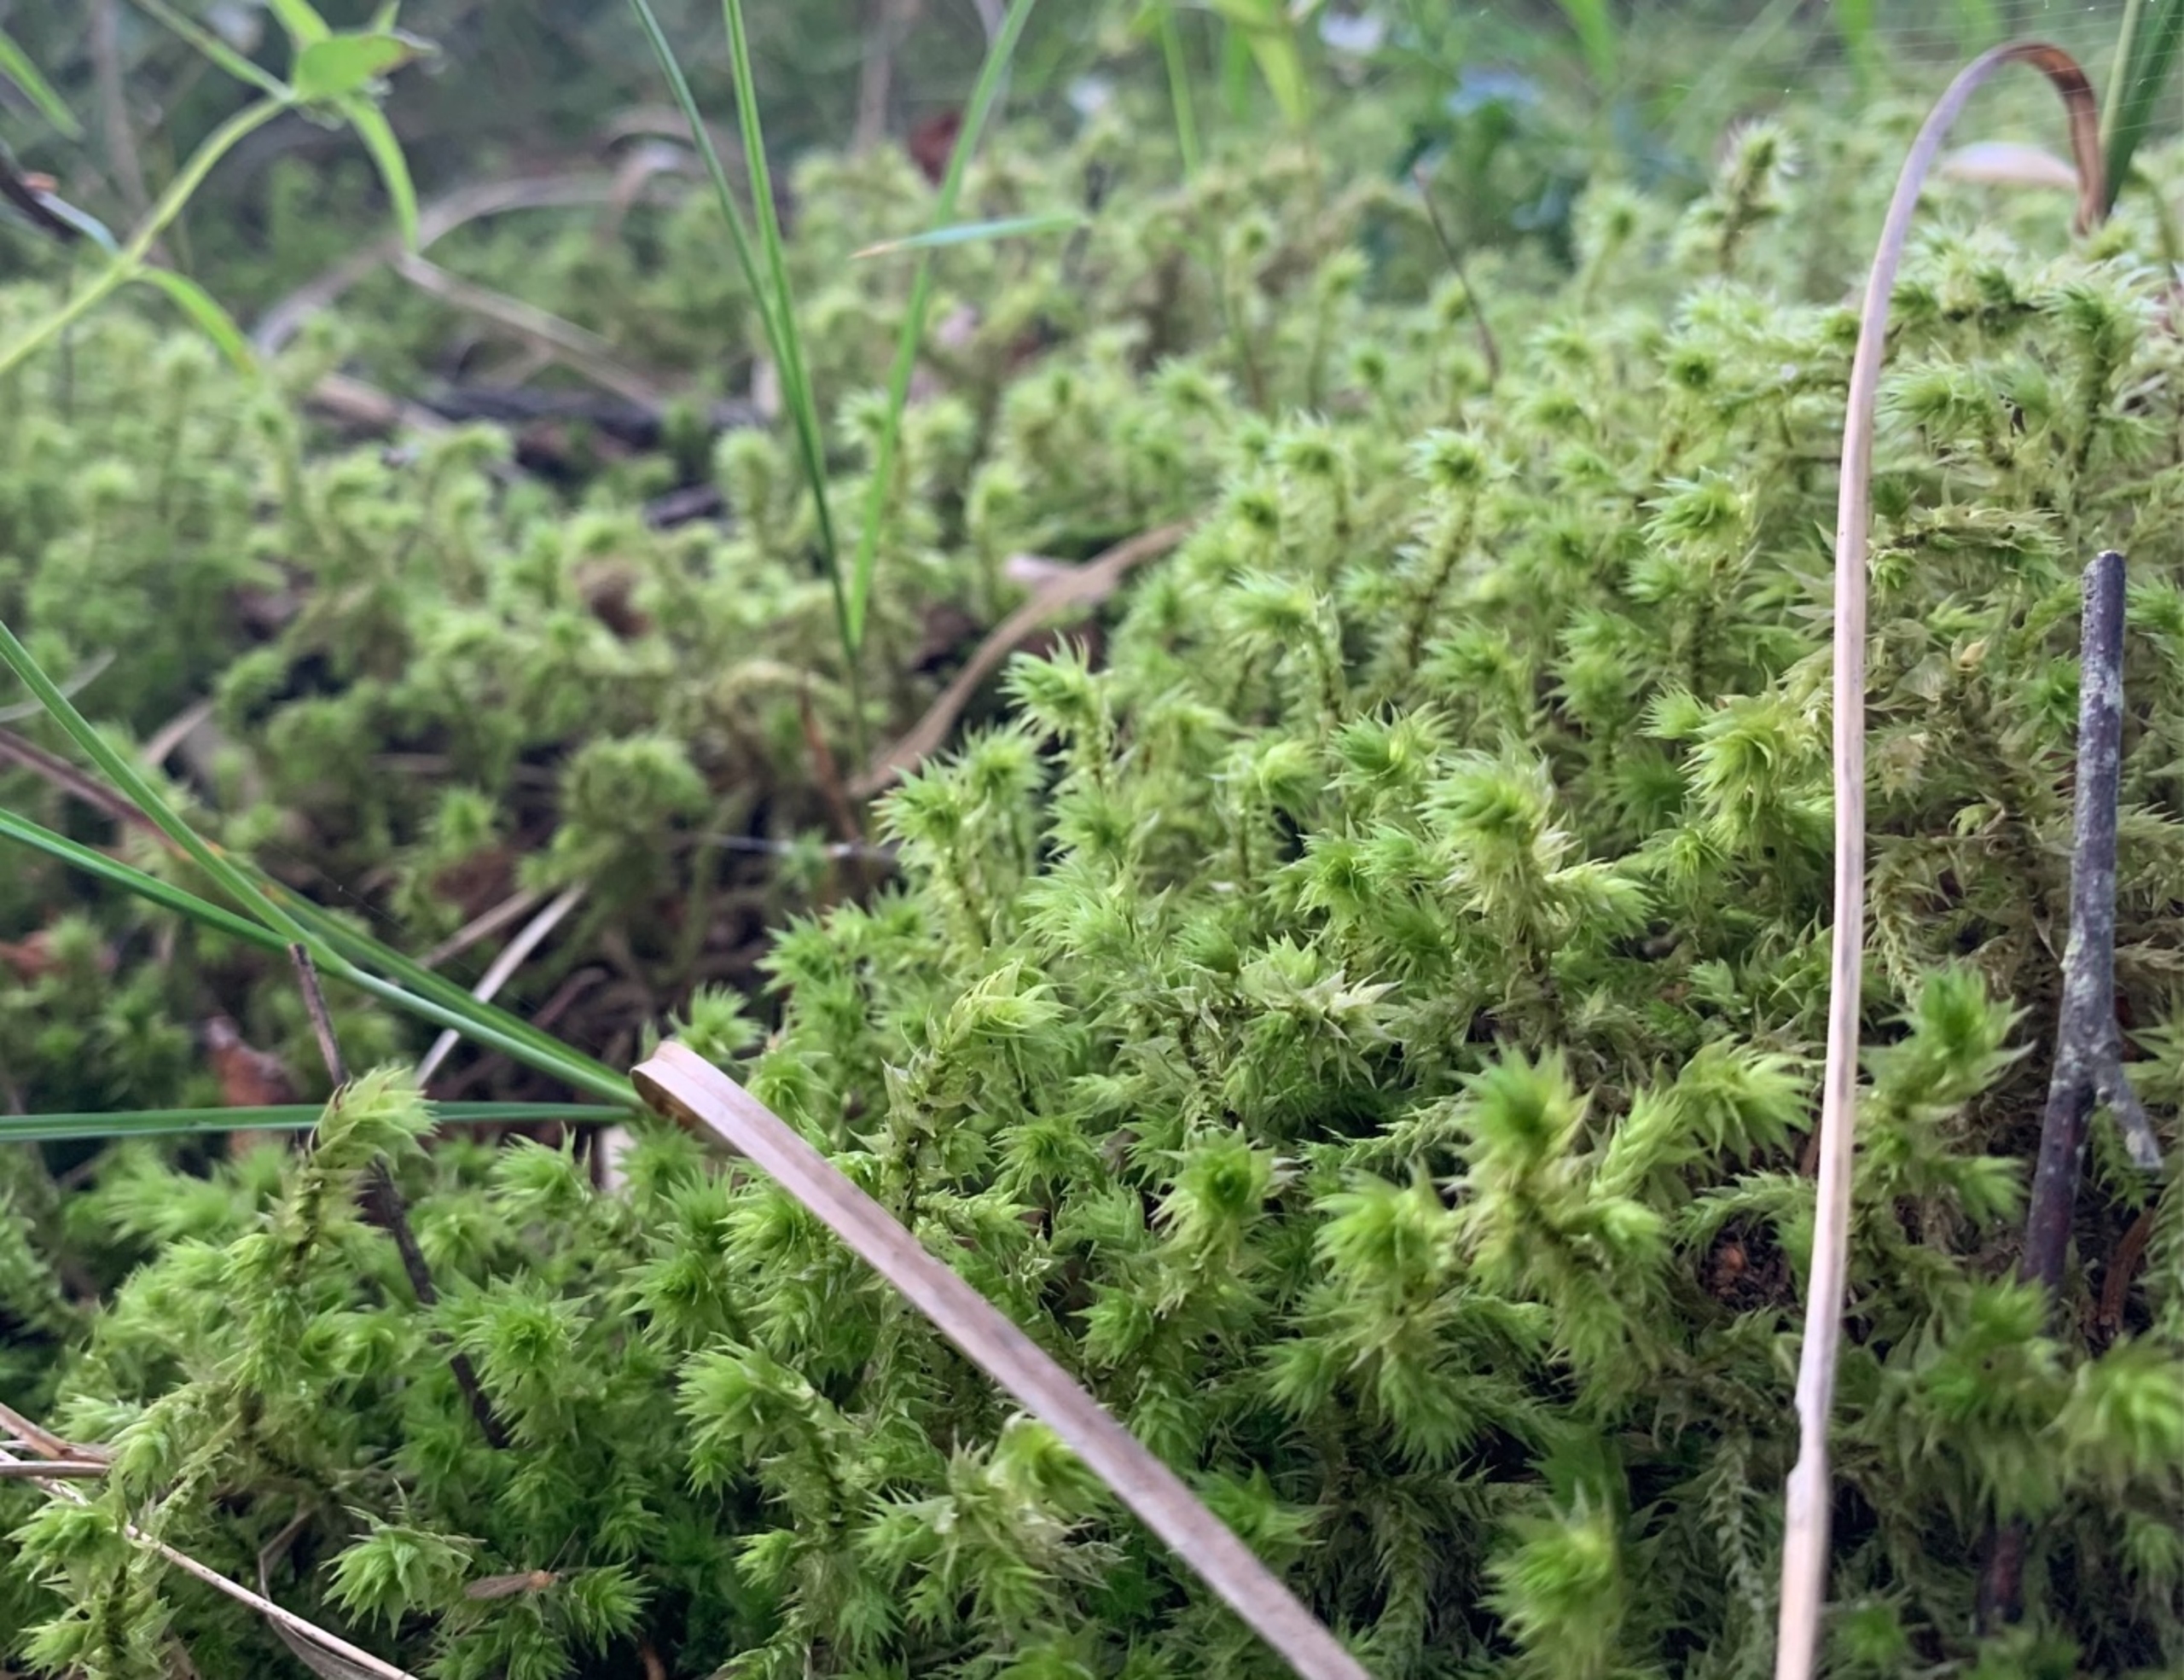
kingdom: Plantae
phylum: Bryophyta
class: Bryopsida
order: Hypnales
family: Hylocomiaceae
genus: Hylocomiadelphus
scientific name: Hylocomiadelphus triquetrus
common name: Stor kransemos
